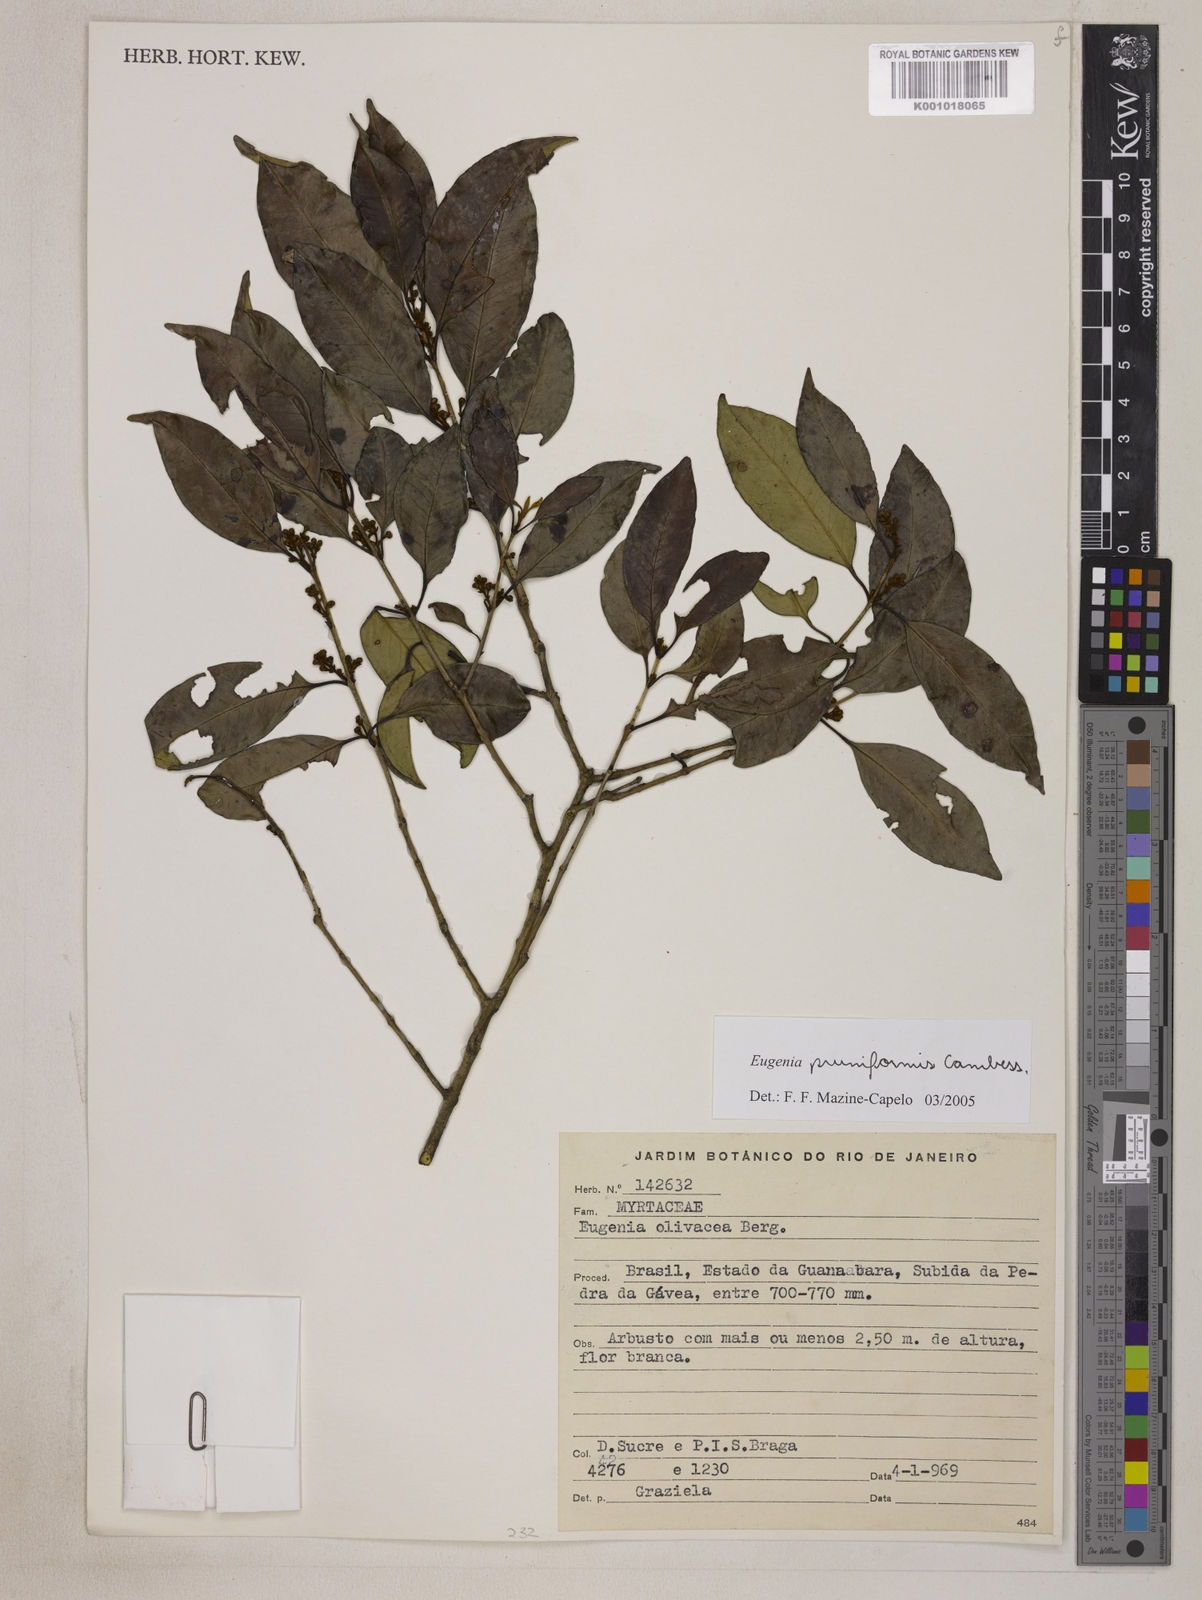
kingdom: Plantae
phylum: Tracheophyta
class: Magnoliopsida
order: Myrtales
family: Myrtaceae
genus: Eugenia
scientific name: Eugenia pruniformis
